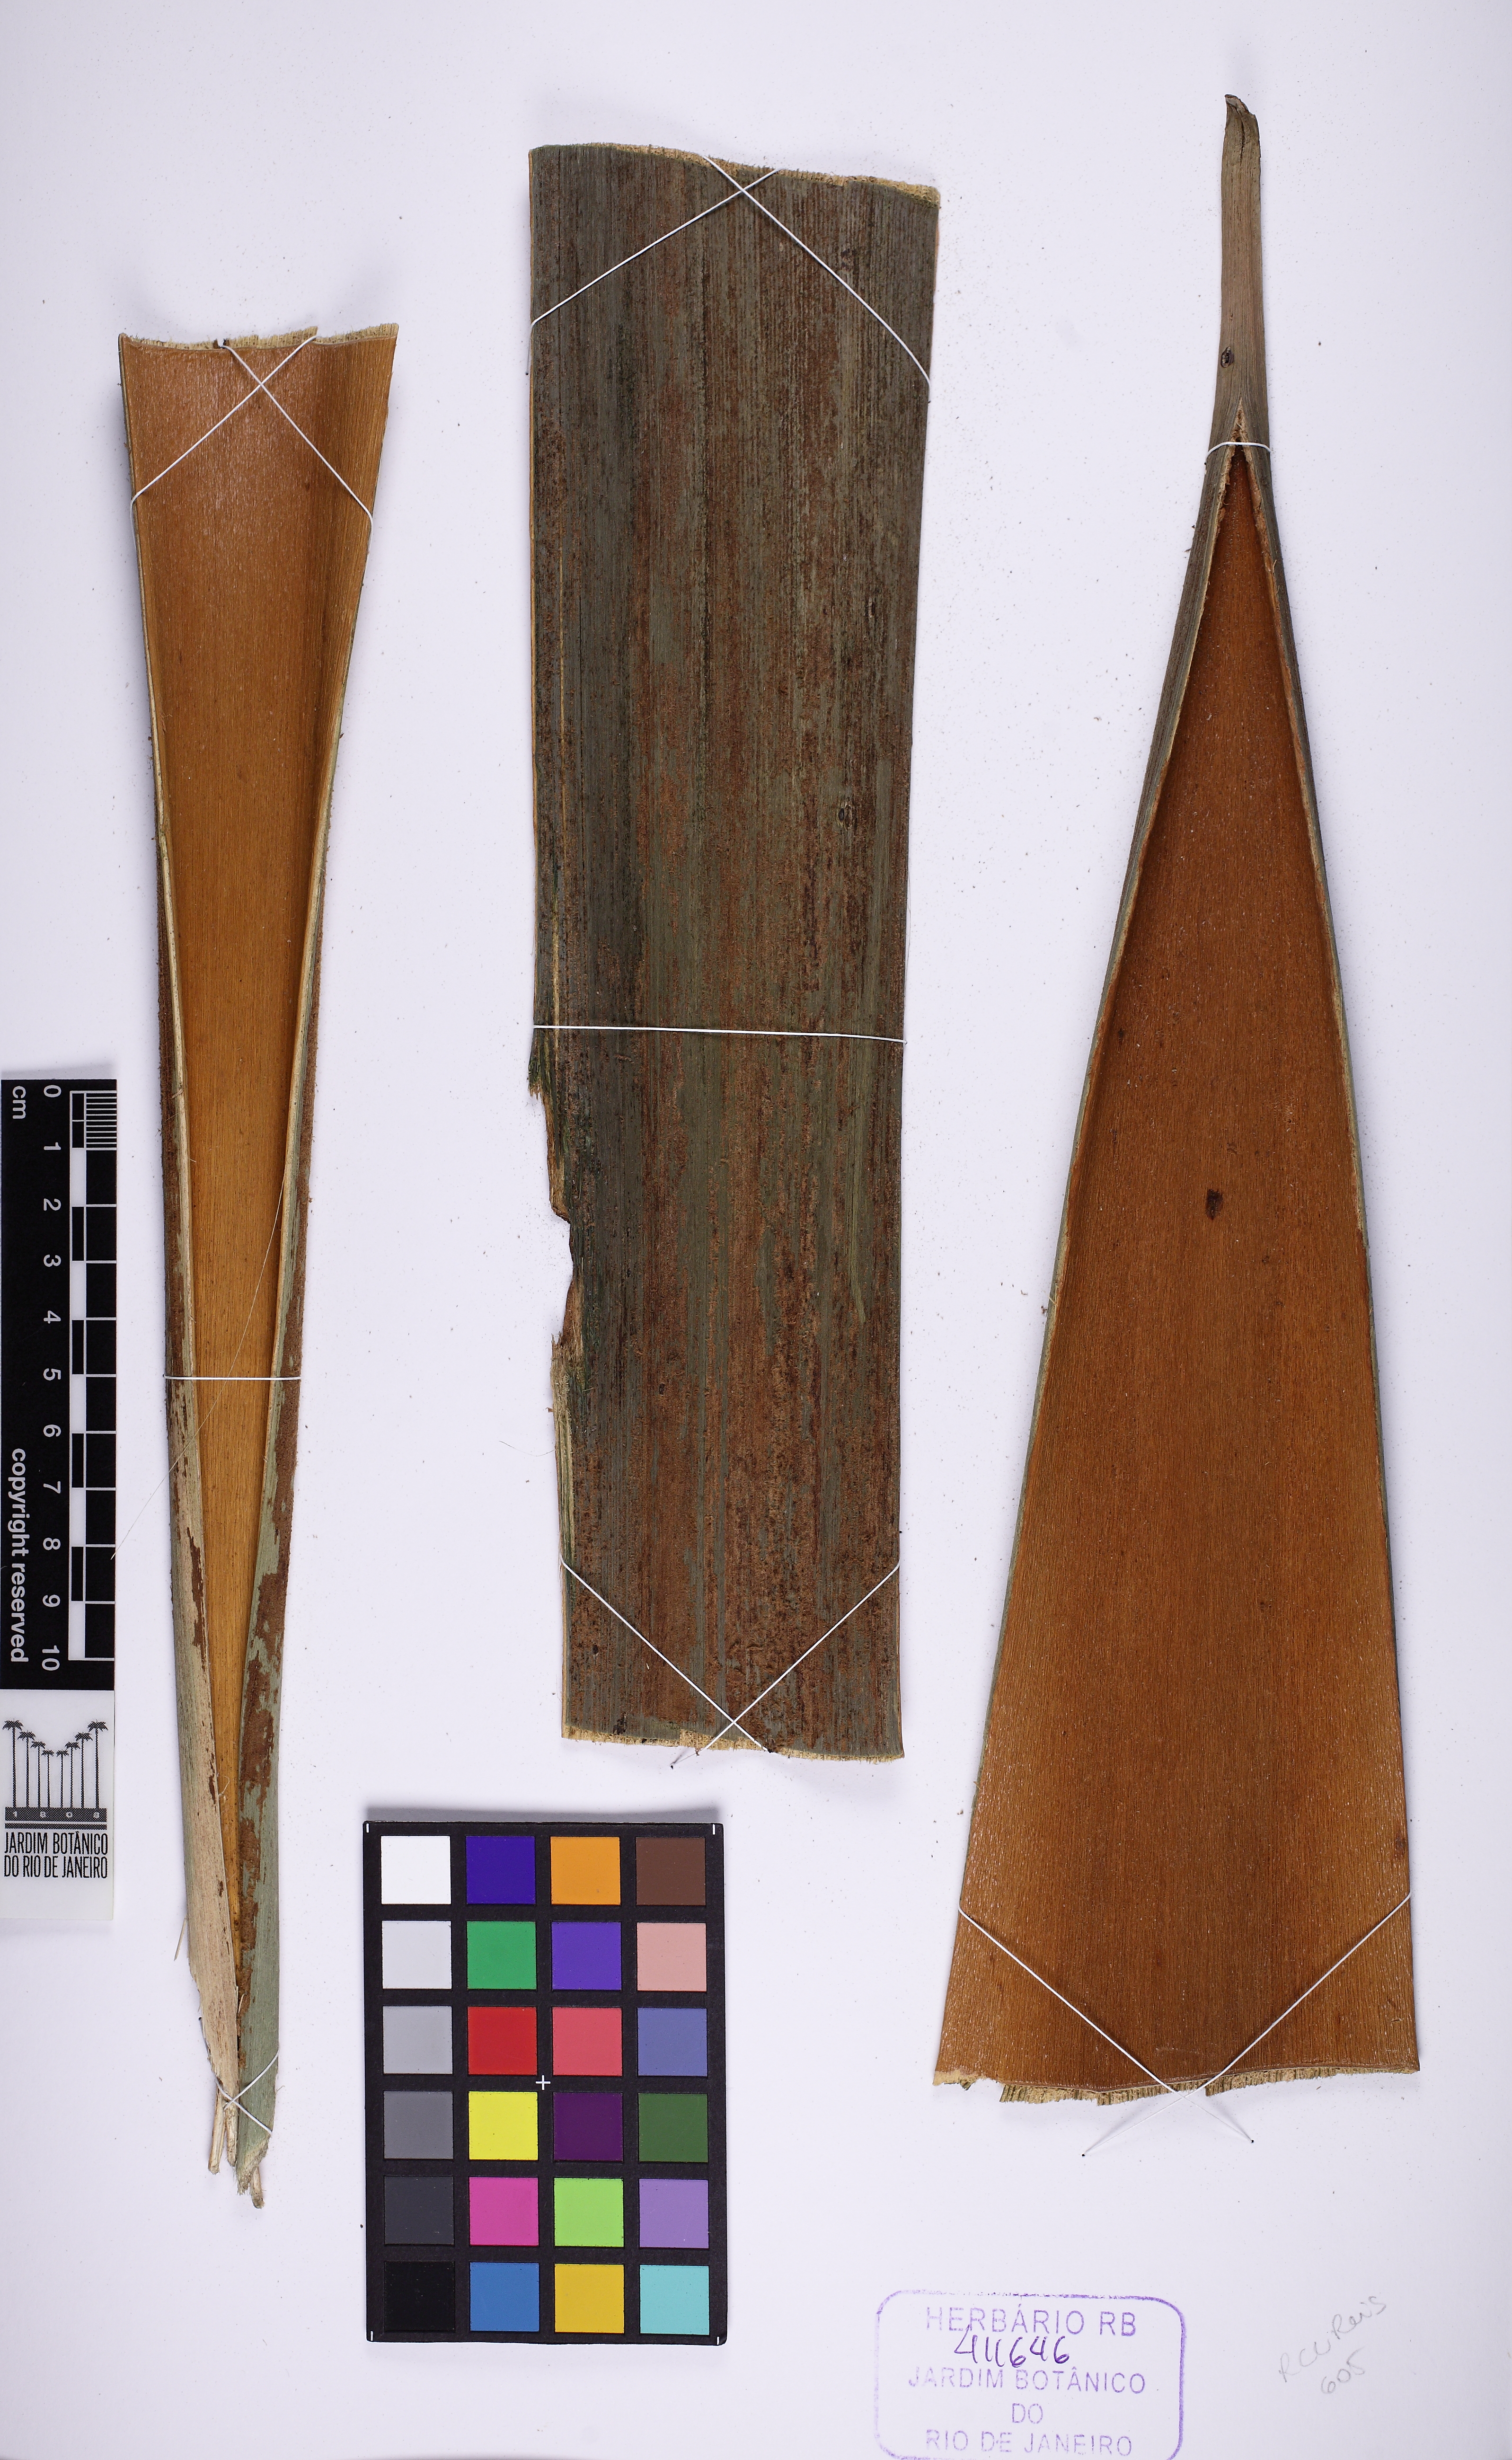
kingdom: Plantae
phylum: Tracheophyta
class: Liliopsida
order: Arecales
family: Arecaceae
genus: Syagrus
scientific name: Syagrus picrophylla
